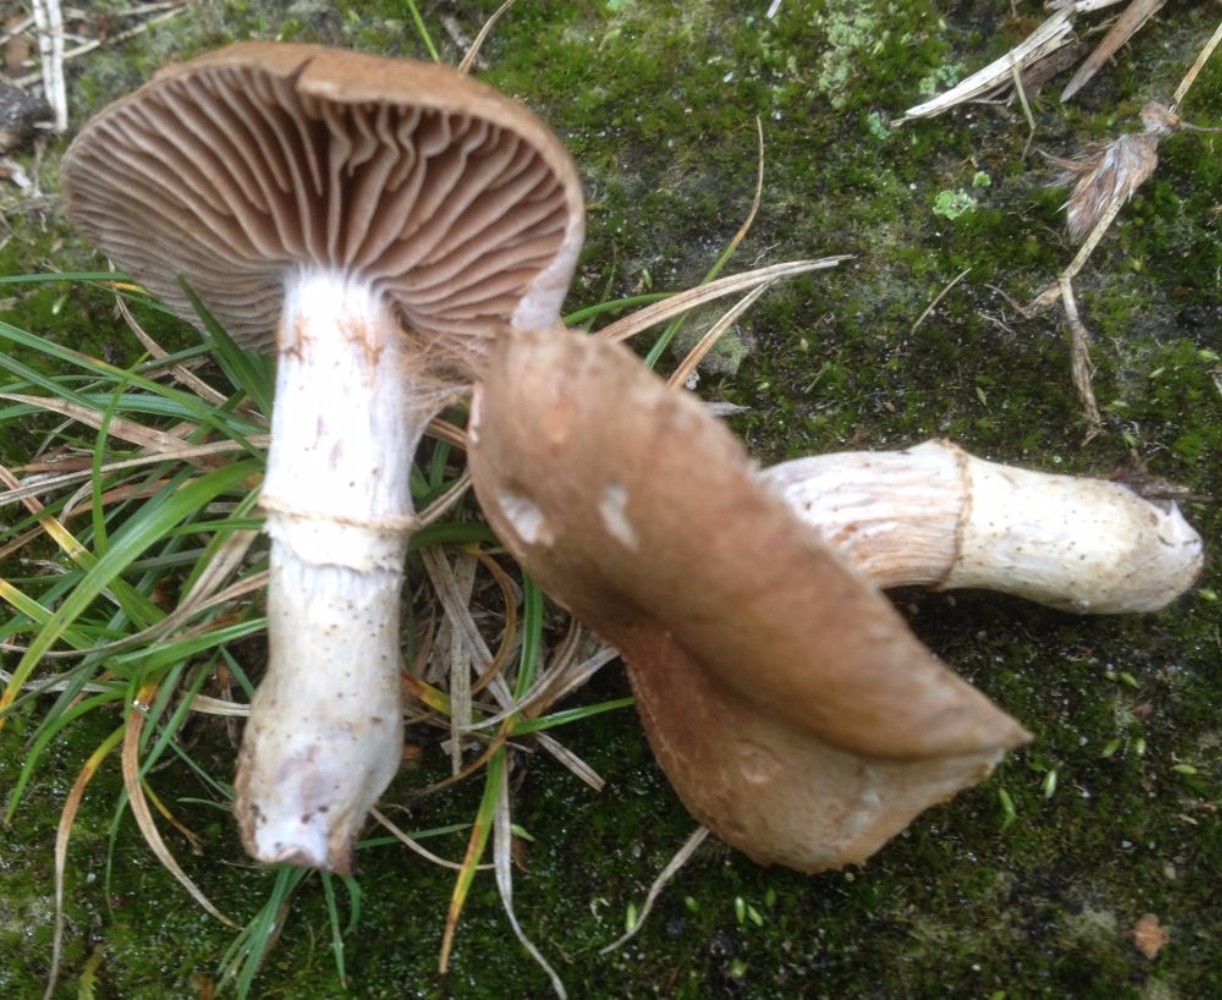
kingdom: Fungi
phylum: Basidiomycota
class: Agaricomycetes
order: Agaricales
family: Cortinariaceae
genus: Cortinarius
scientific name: Cortinarius torvus
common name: champignonagtig slørhat
